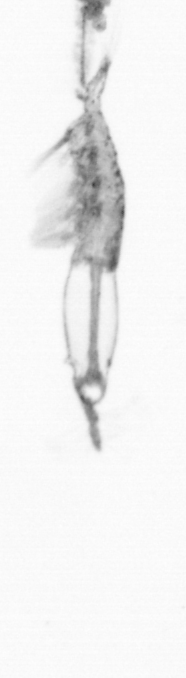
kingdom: Animalia
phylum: Arthropoda
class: Copepoda
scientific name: Copepoda
